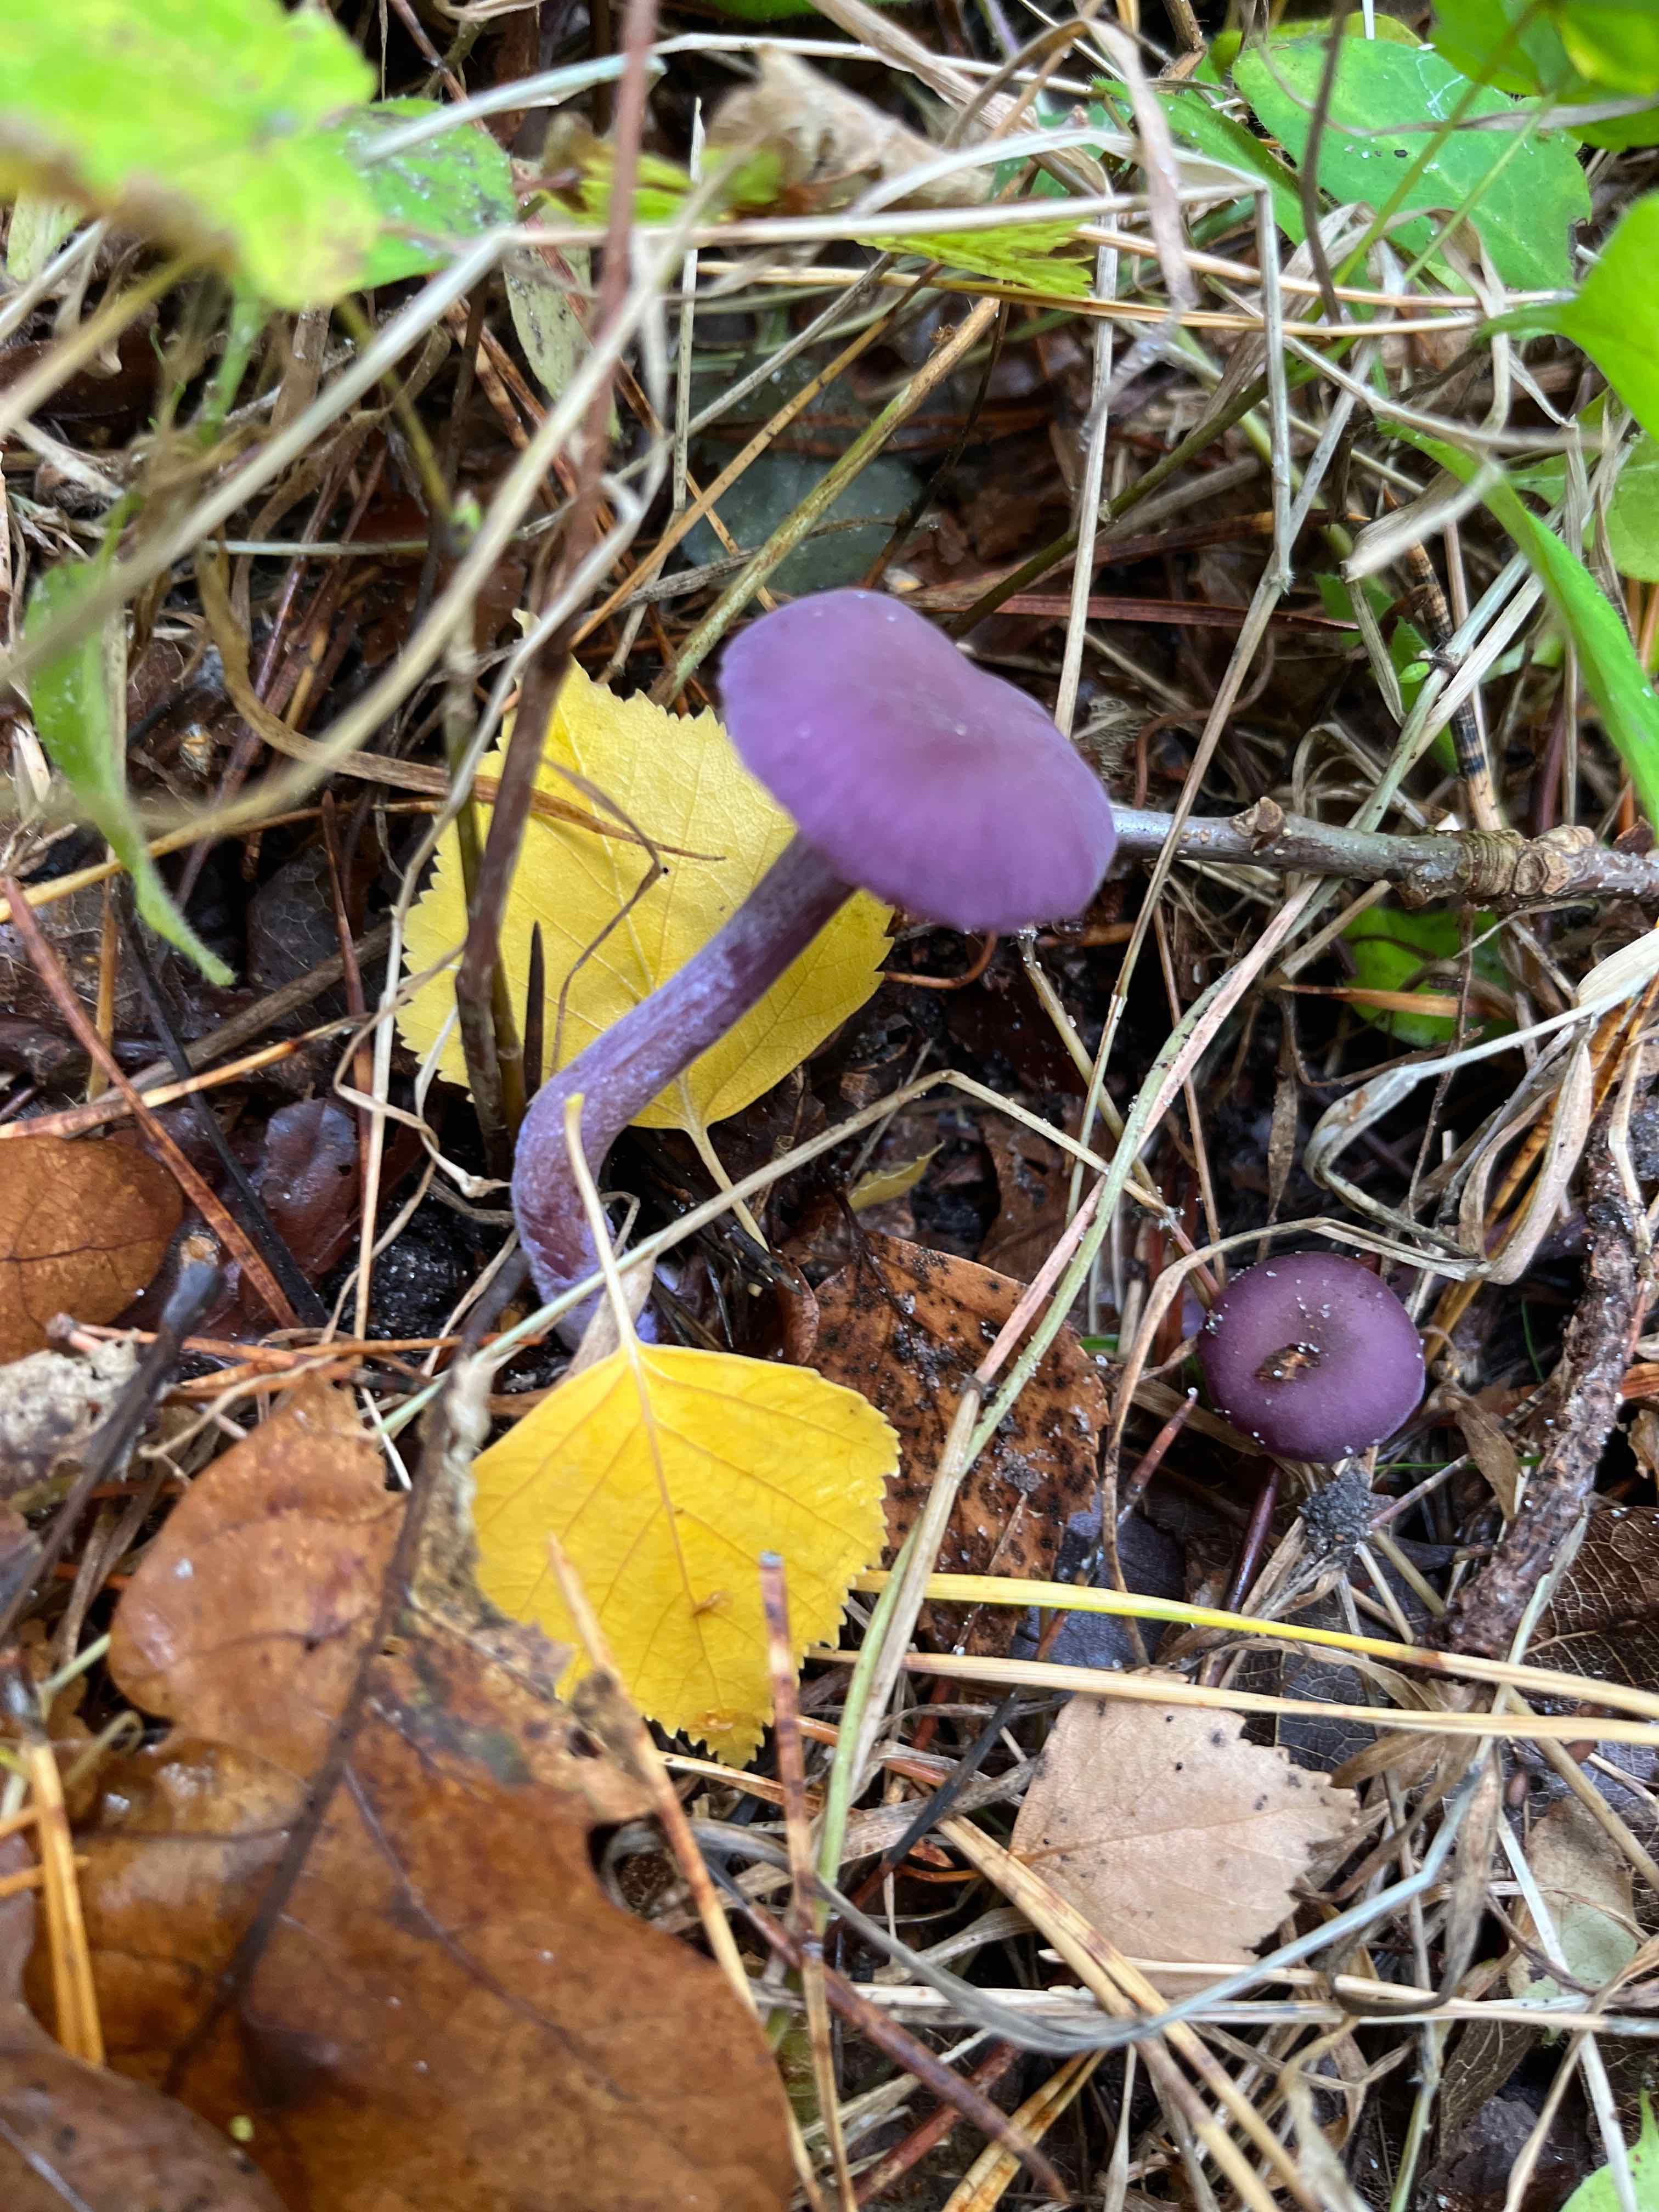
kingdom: Fungi
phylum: Basidiomycota
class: Agaricomycetes
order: Agaricales
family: Hydnangiaceae
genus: Laccaria
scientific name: Laccaria amethystina
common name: violet ametysthat
